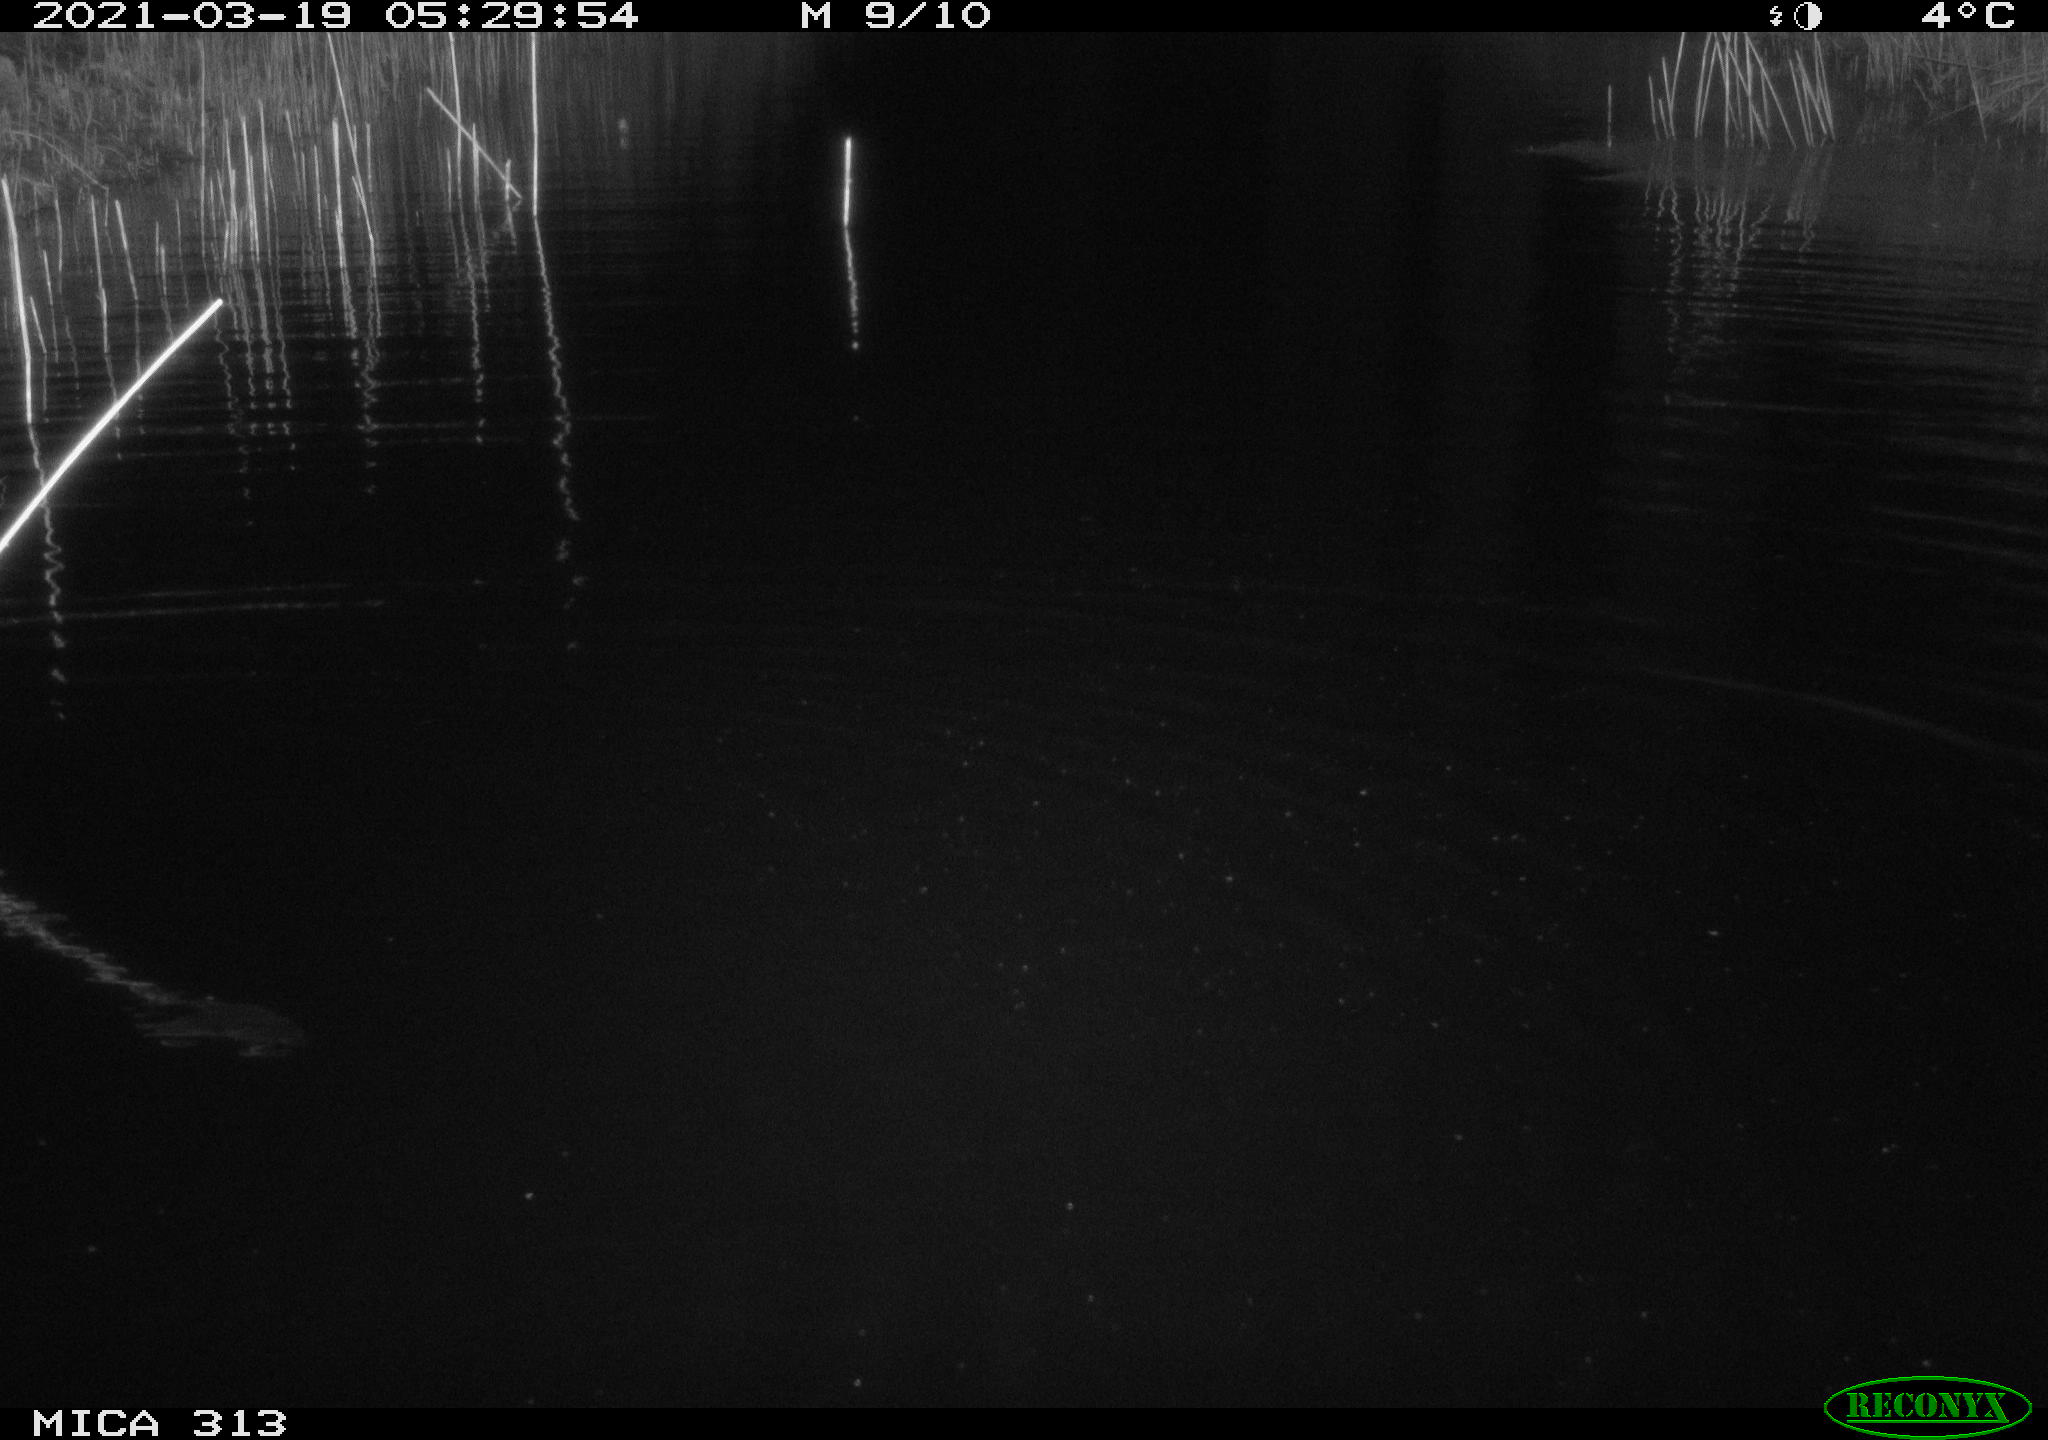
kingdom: Animalia
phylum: Chordata
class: Aves
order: Anseriformes
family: Anatidae
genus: Mareca
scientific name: Mareca strepera
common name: Gadwall
